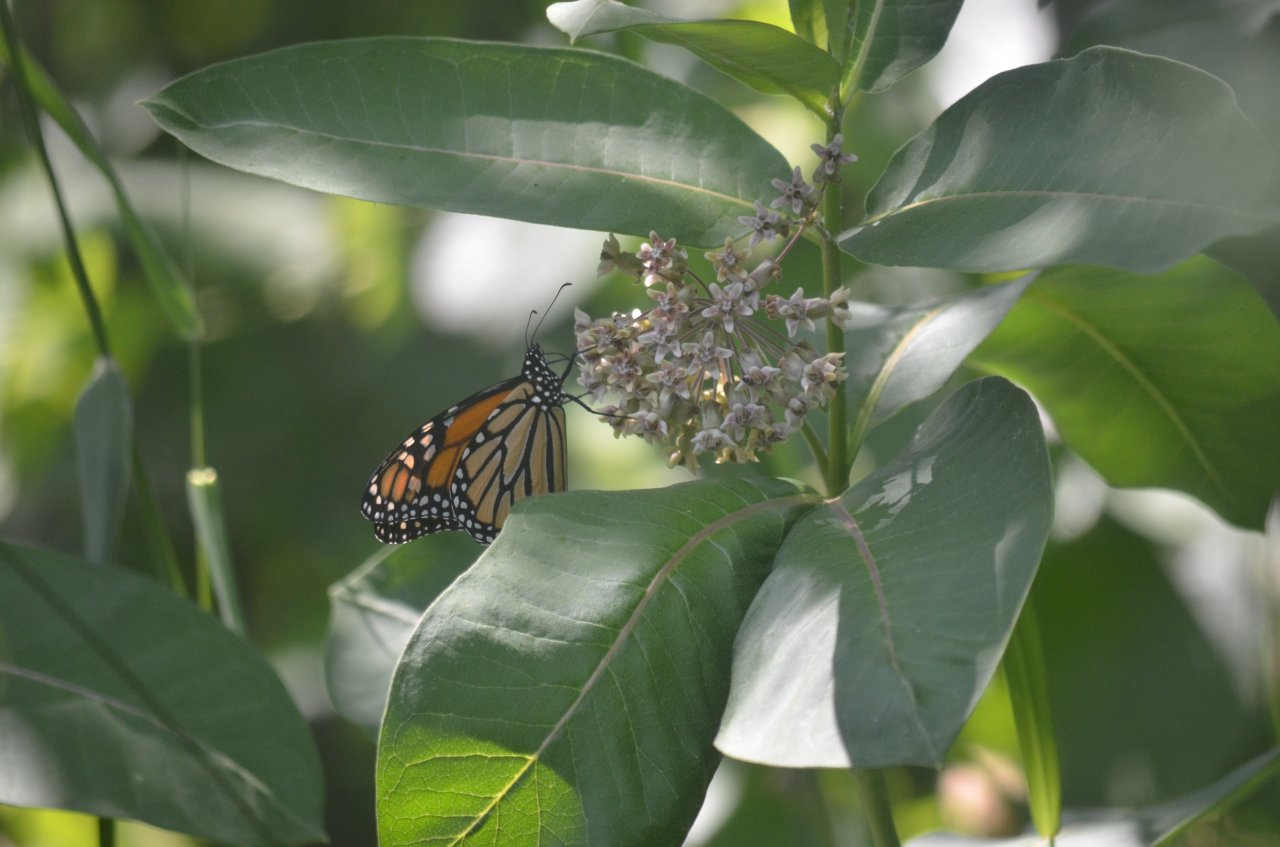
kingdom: Animalia
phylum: Arthropoda
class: Insecta
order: Lepidoptera
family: Nymphalidae
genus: Danaus
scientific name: Danaus plexippus
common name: Monarch
